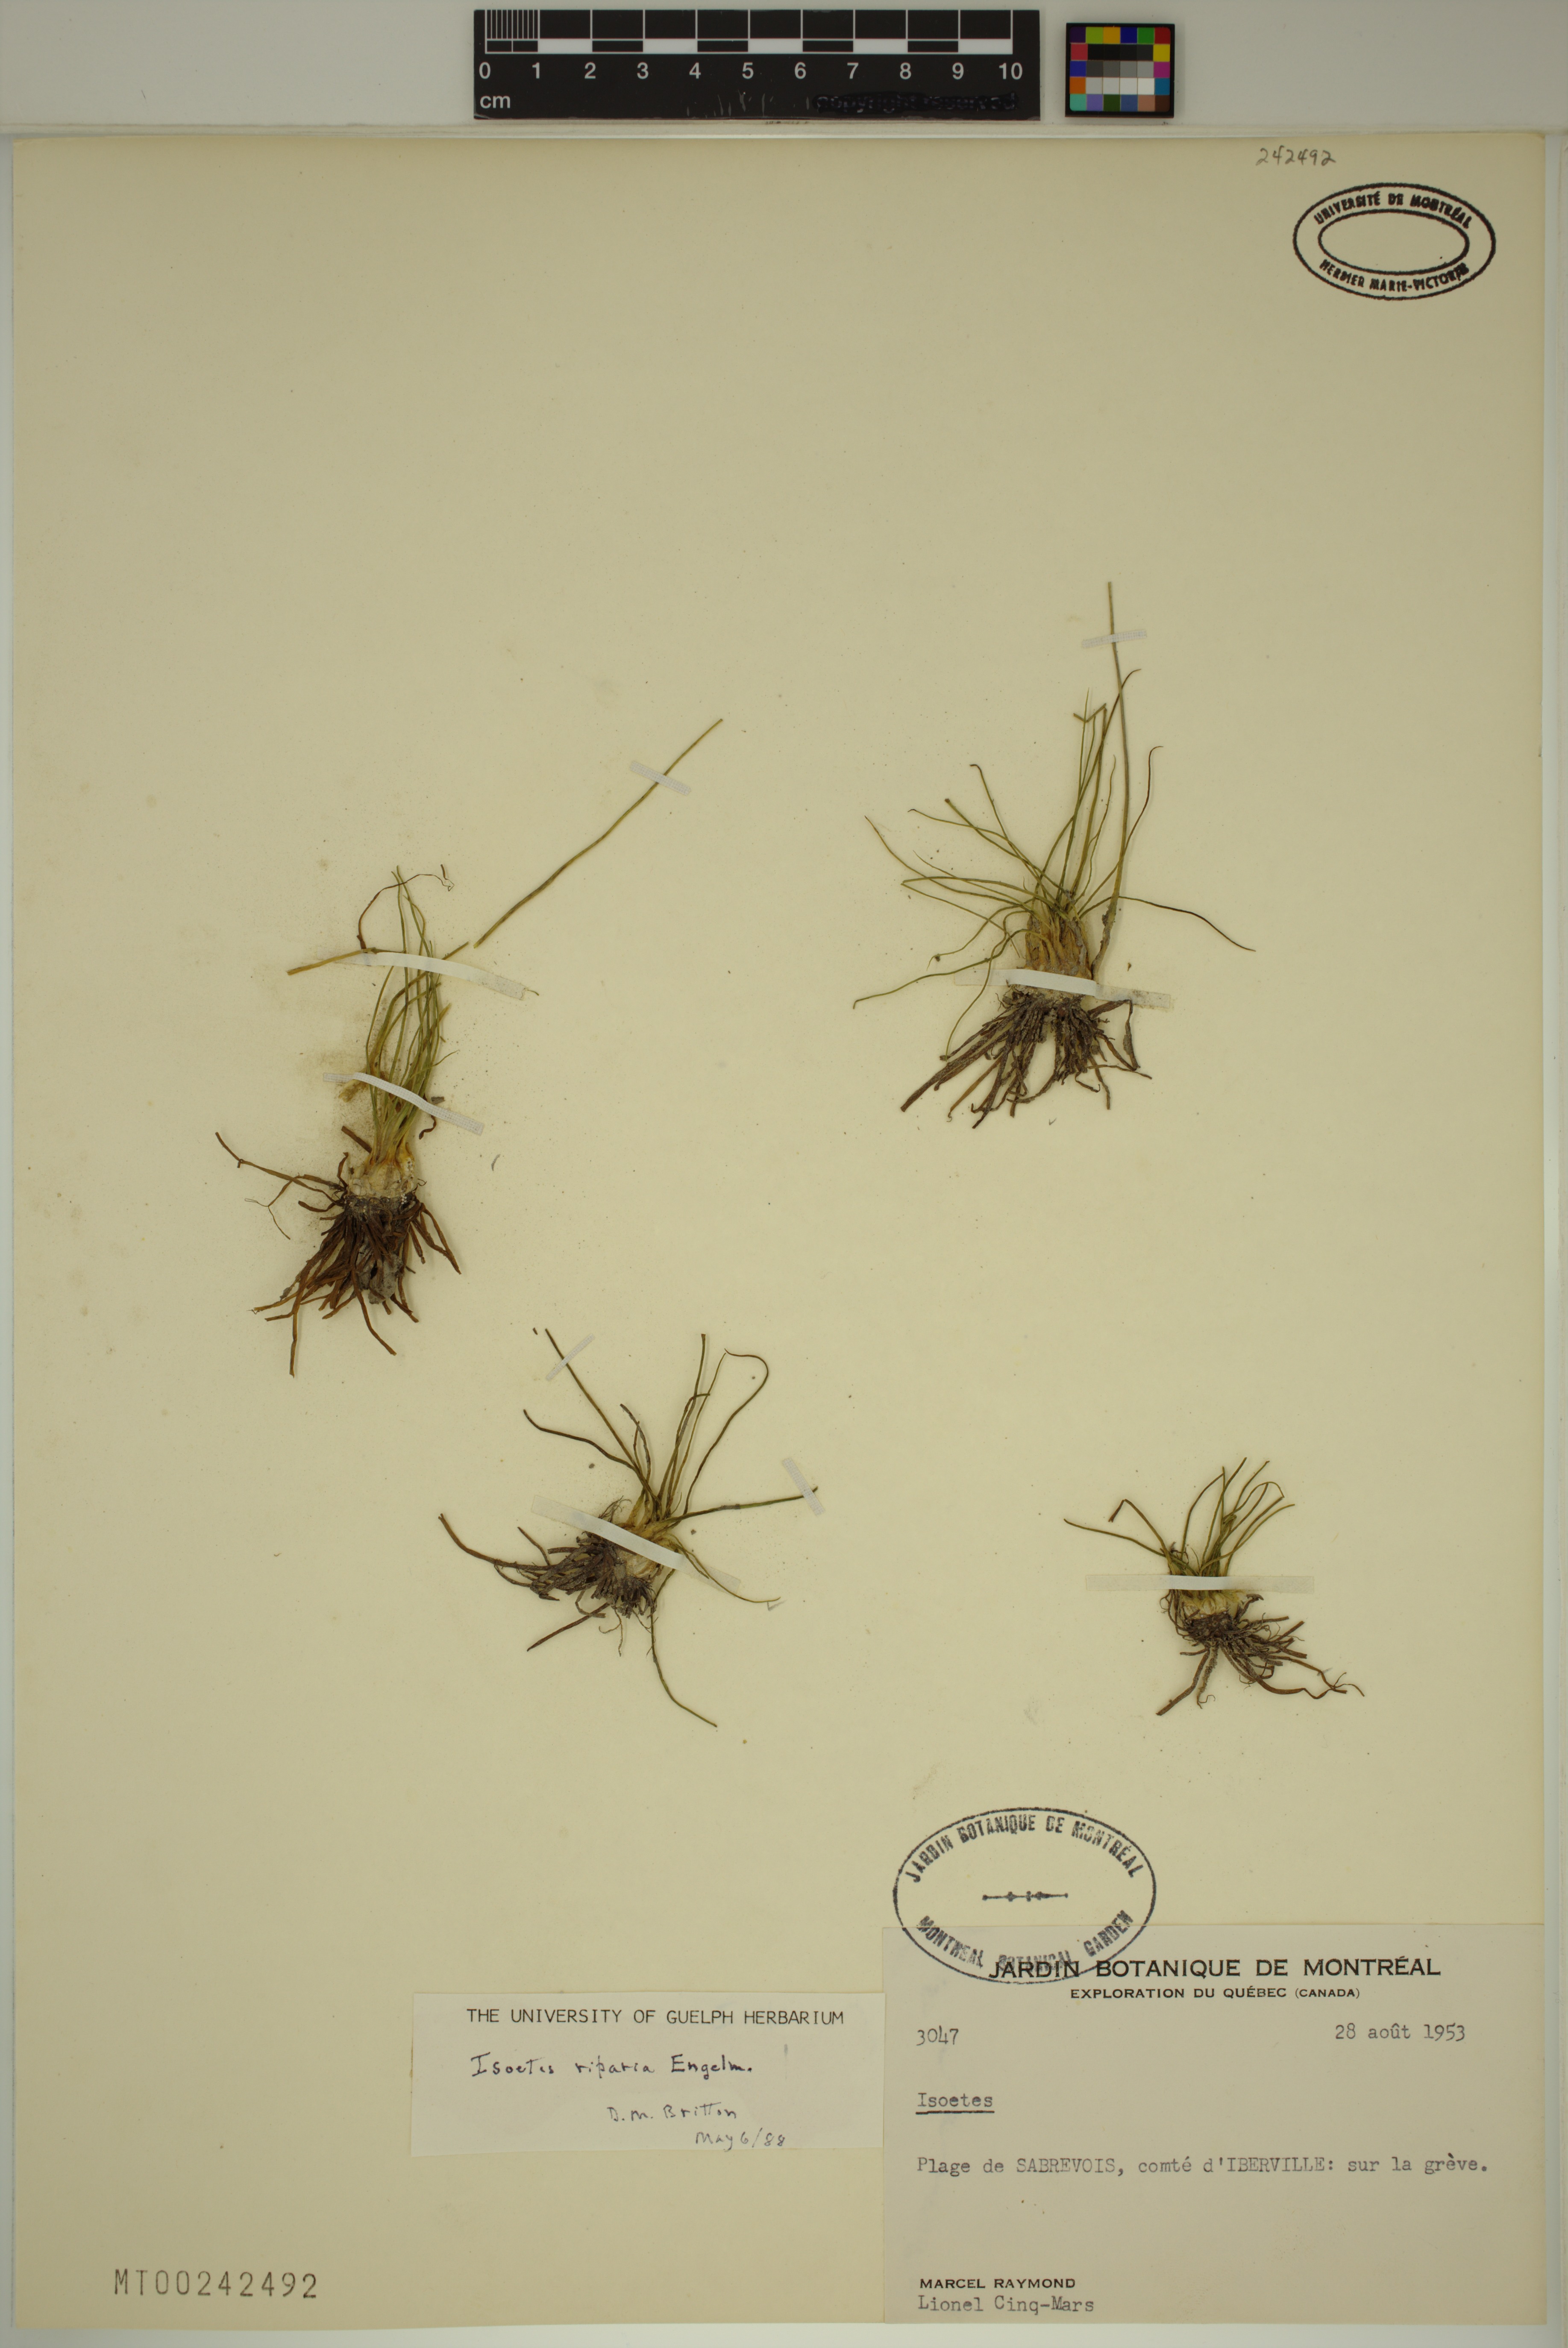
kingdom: Plantae
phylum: Tracheophyta
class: Lycopodiopsida
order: Isoetales
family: Isoetaceae
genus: Isoetes
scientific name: Isoetes septentrionalis
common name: Northern quillwort
